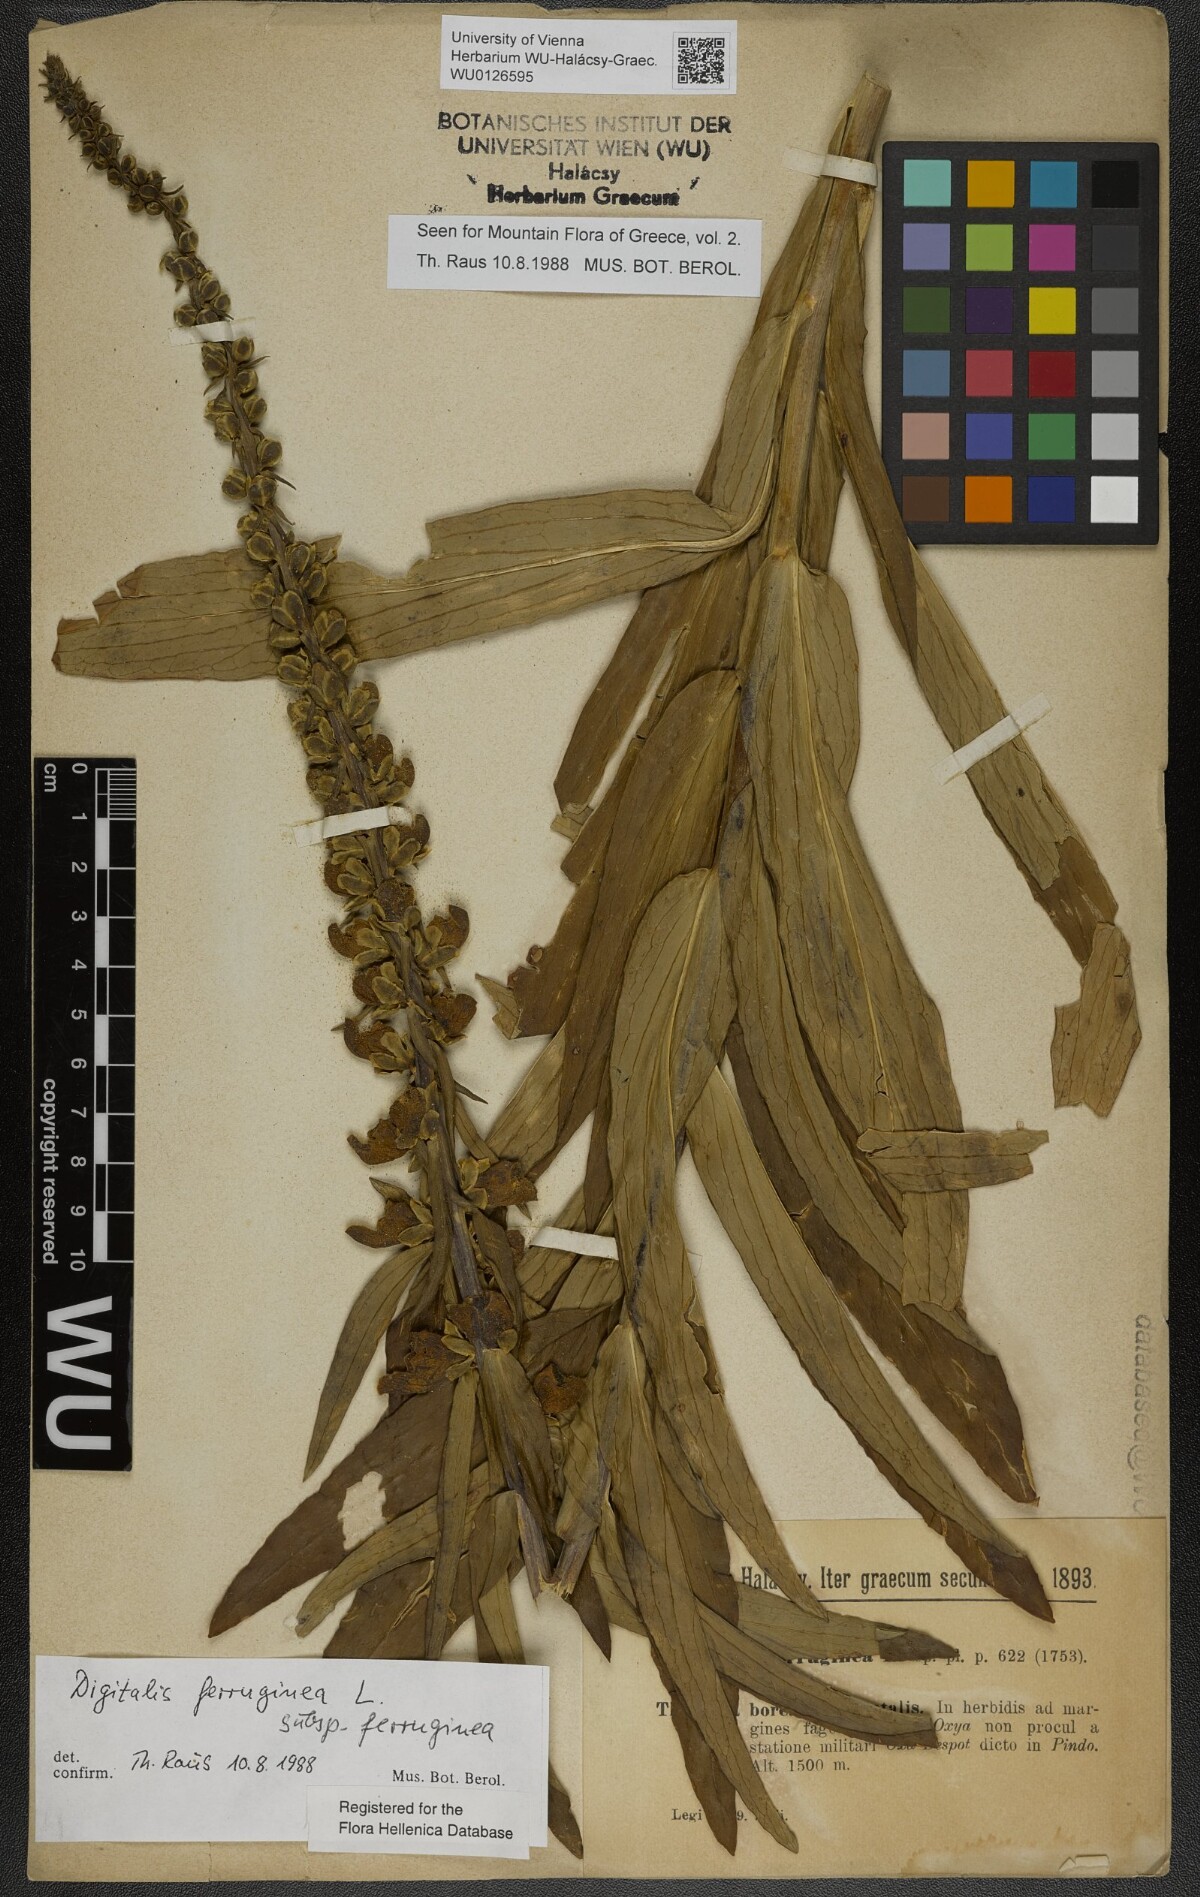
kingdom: Plantae
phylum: Tracheophyta
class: Magnoliopsida
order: Lamiales
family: Plantaginaceae
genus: Digitalis
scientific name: Digitalis ferruginea
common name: Rusty foxglove
